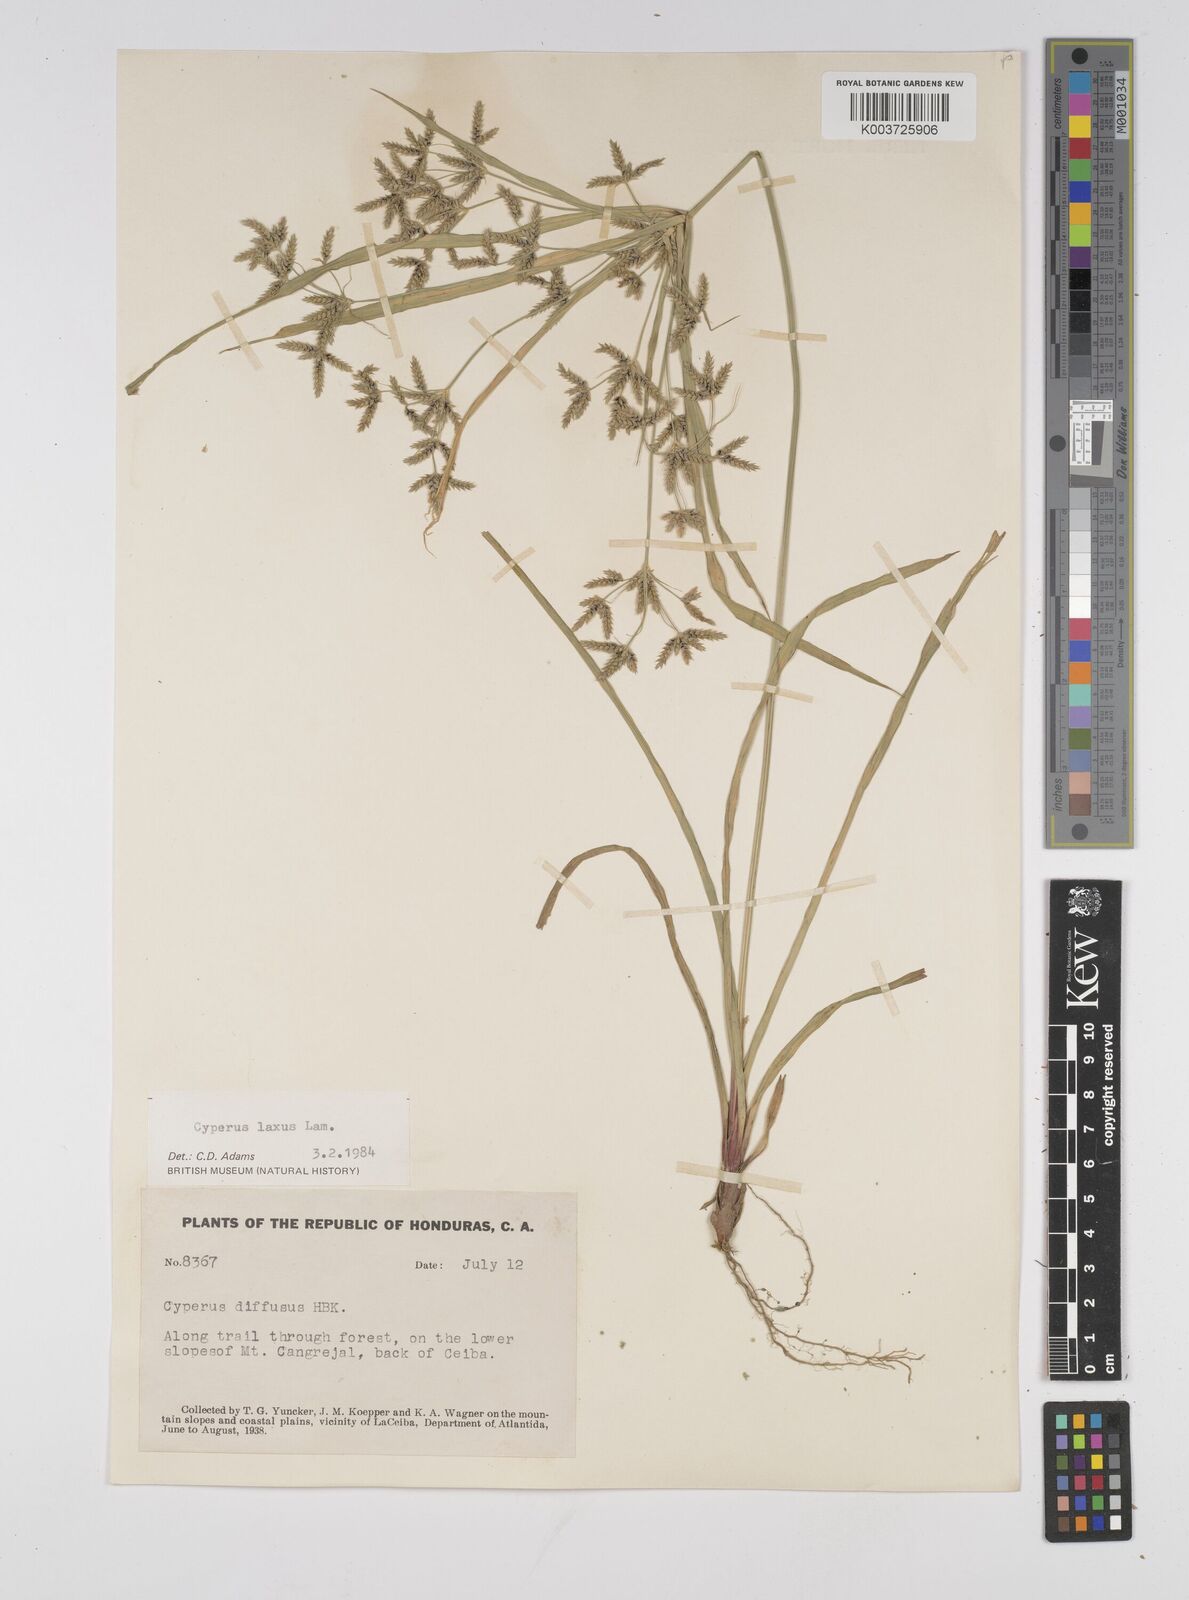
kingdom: Plantae
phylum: Tracheophyta
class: Liliopsida
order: Poales
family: Cyperaceae
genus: Cyperus
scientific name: Cyperus chalaranthus
